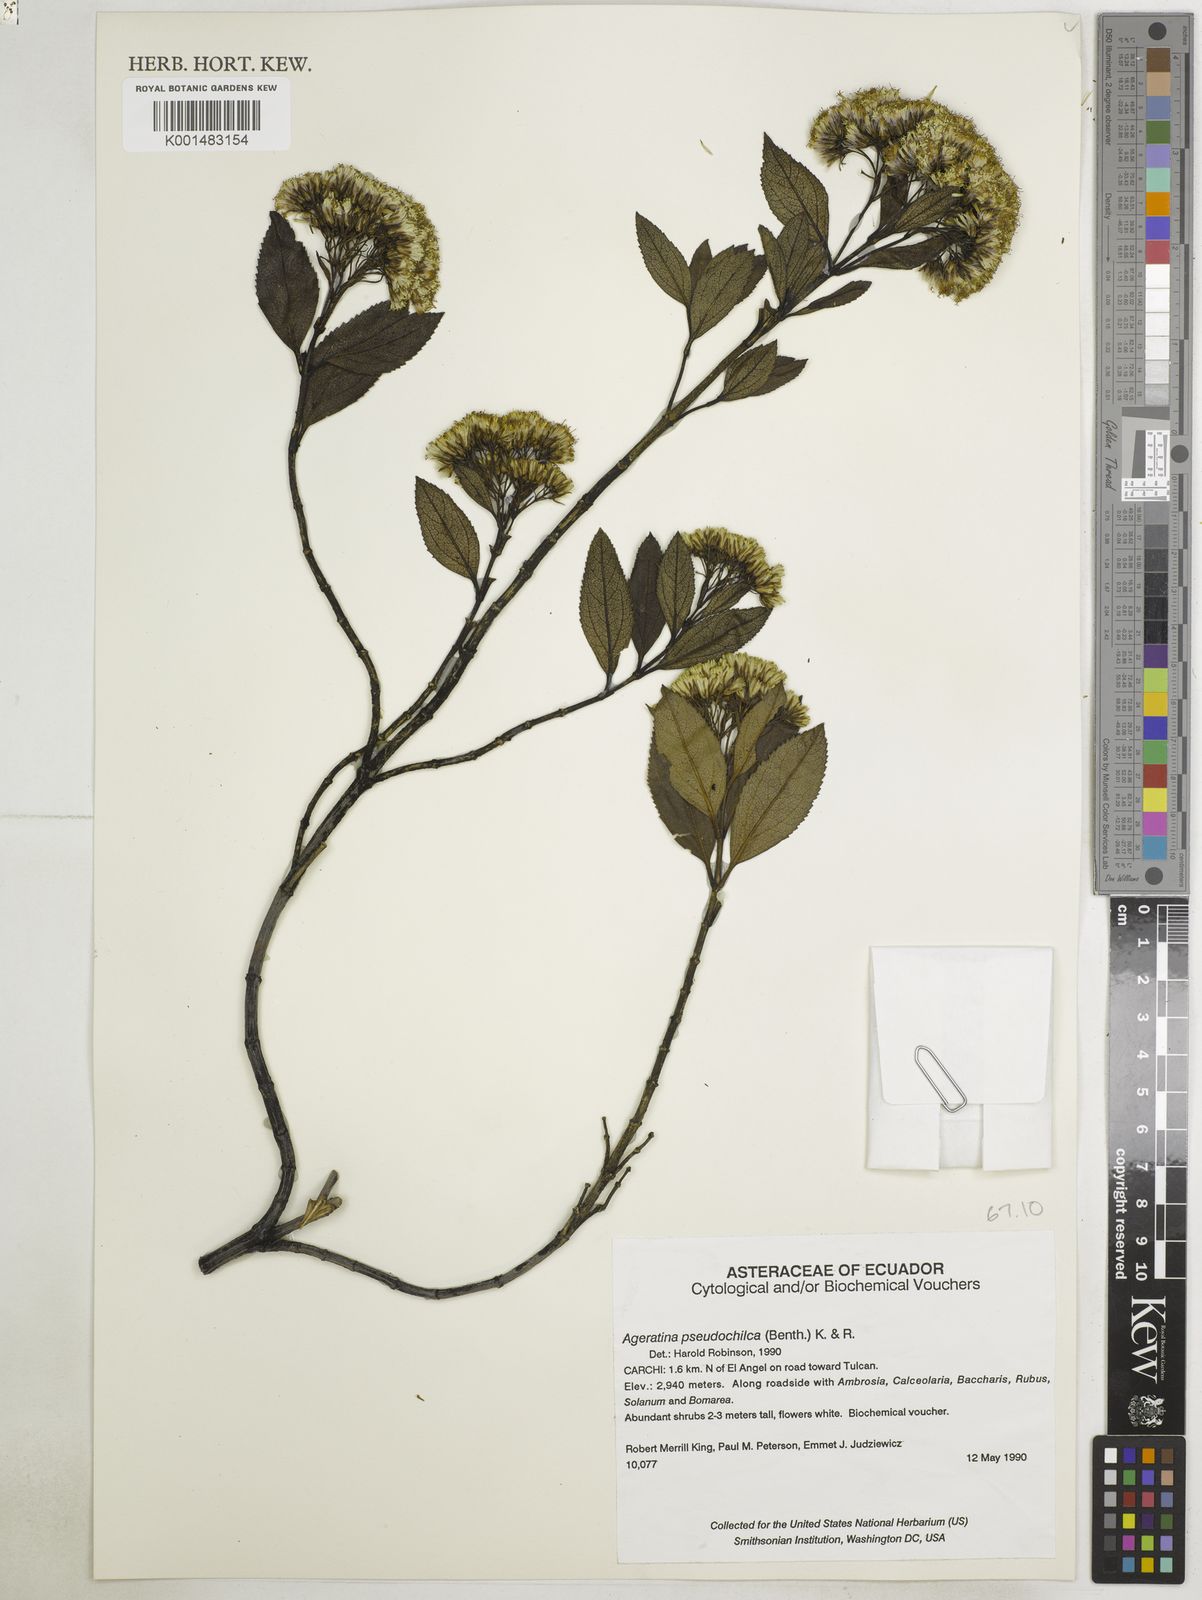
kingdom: Plantae
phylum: Tracheophyta
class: Magnoliopsida
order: Asterales
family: Asteraceae
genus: Ageratina
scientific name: Ageratina pseudochilca
